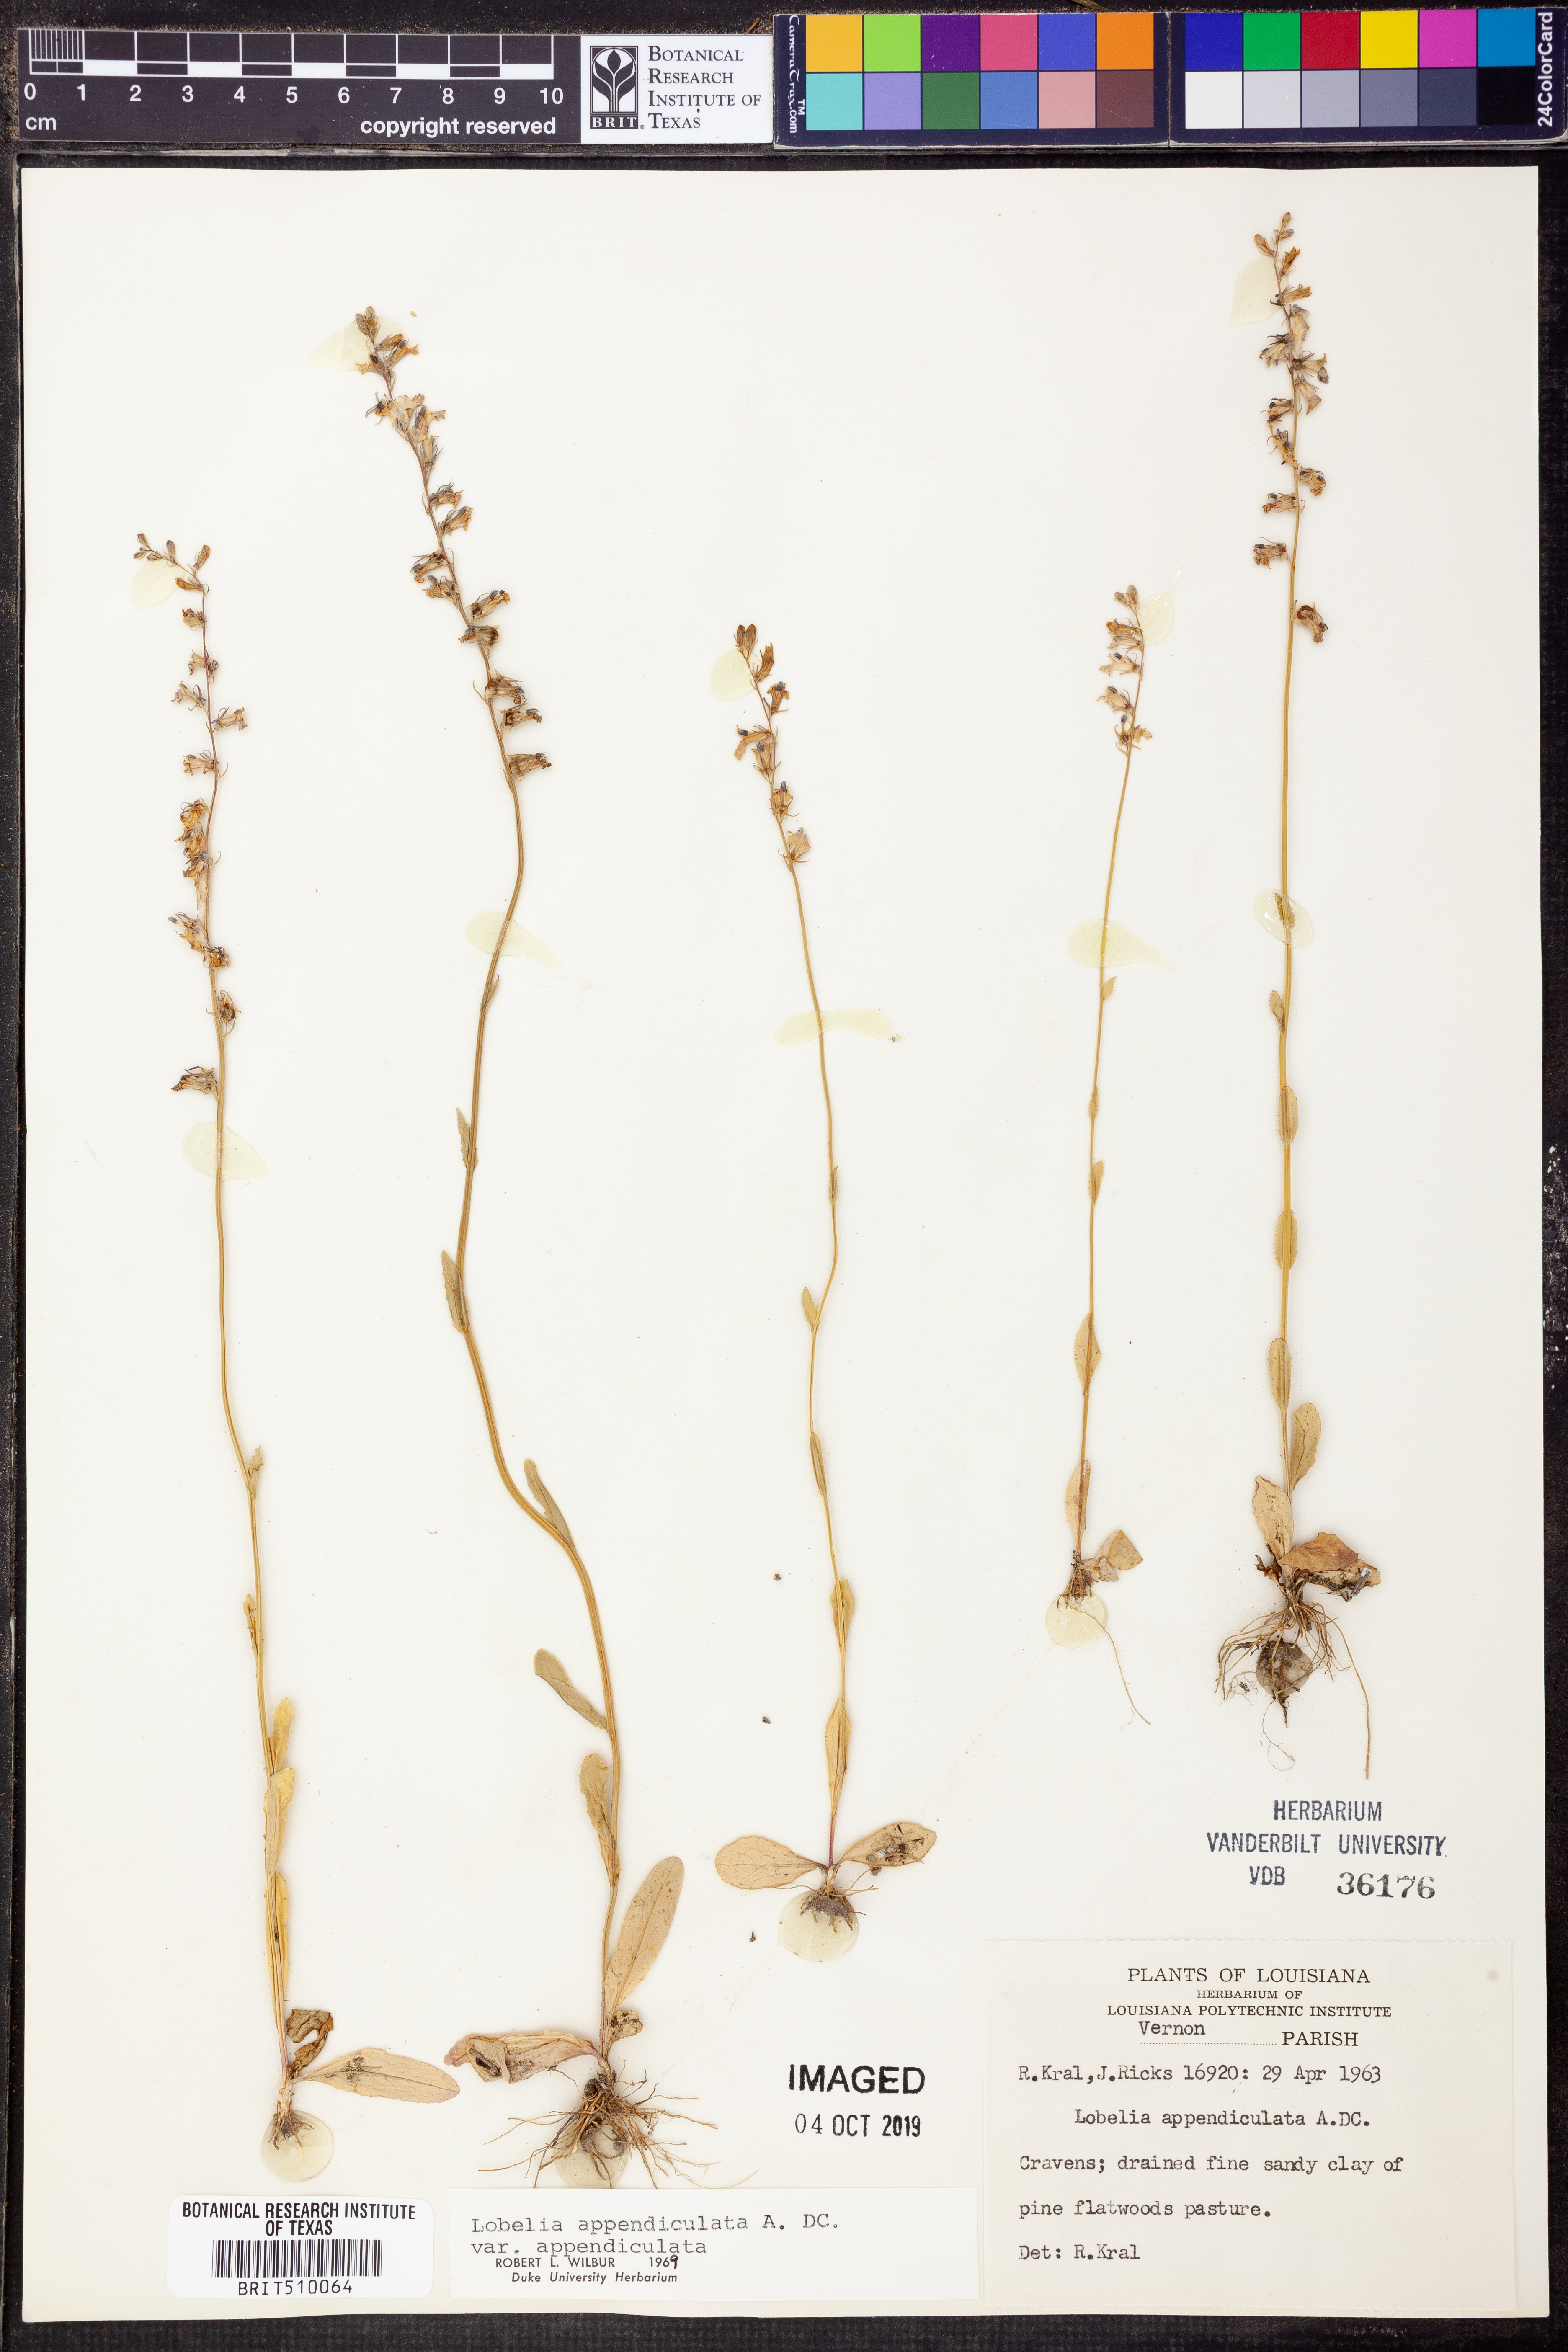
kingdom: Plantae
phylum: Tracheophyta
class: Magnoliopsida
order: Asterales
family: Campanulaceae
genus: Lobelia
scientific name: Lobelia appendiculata
